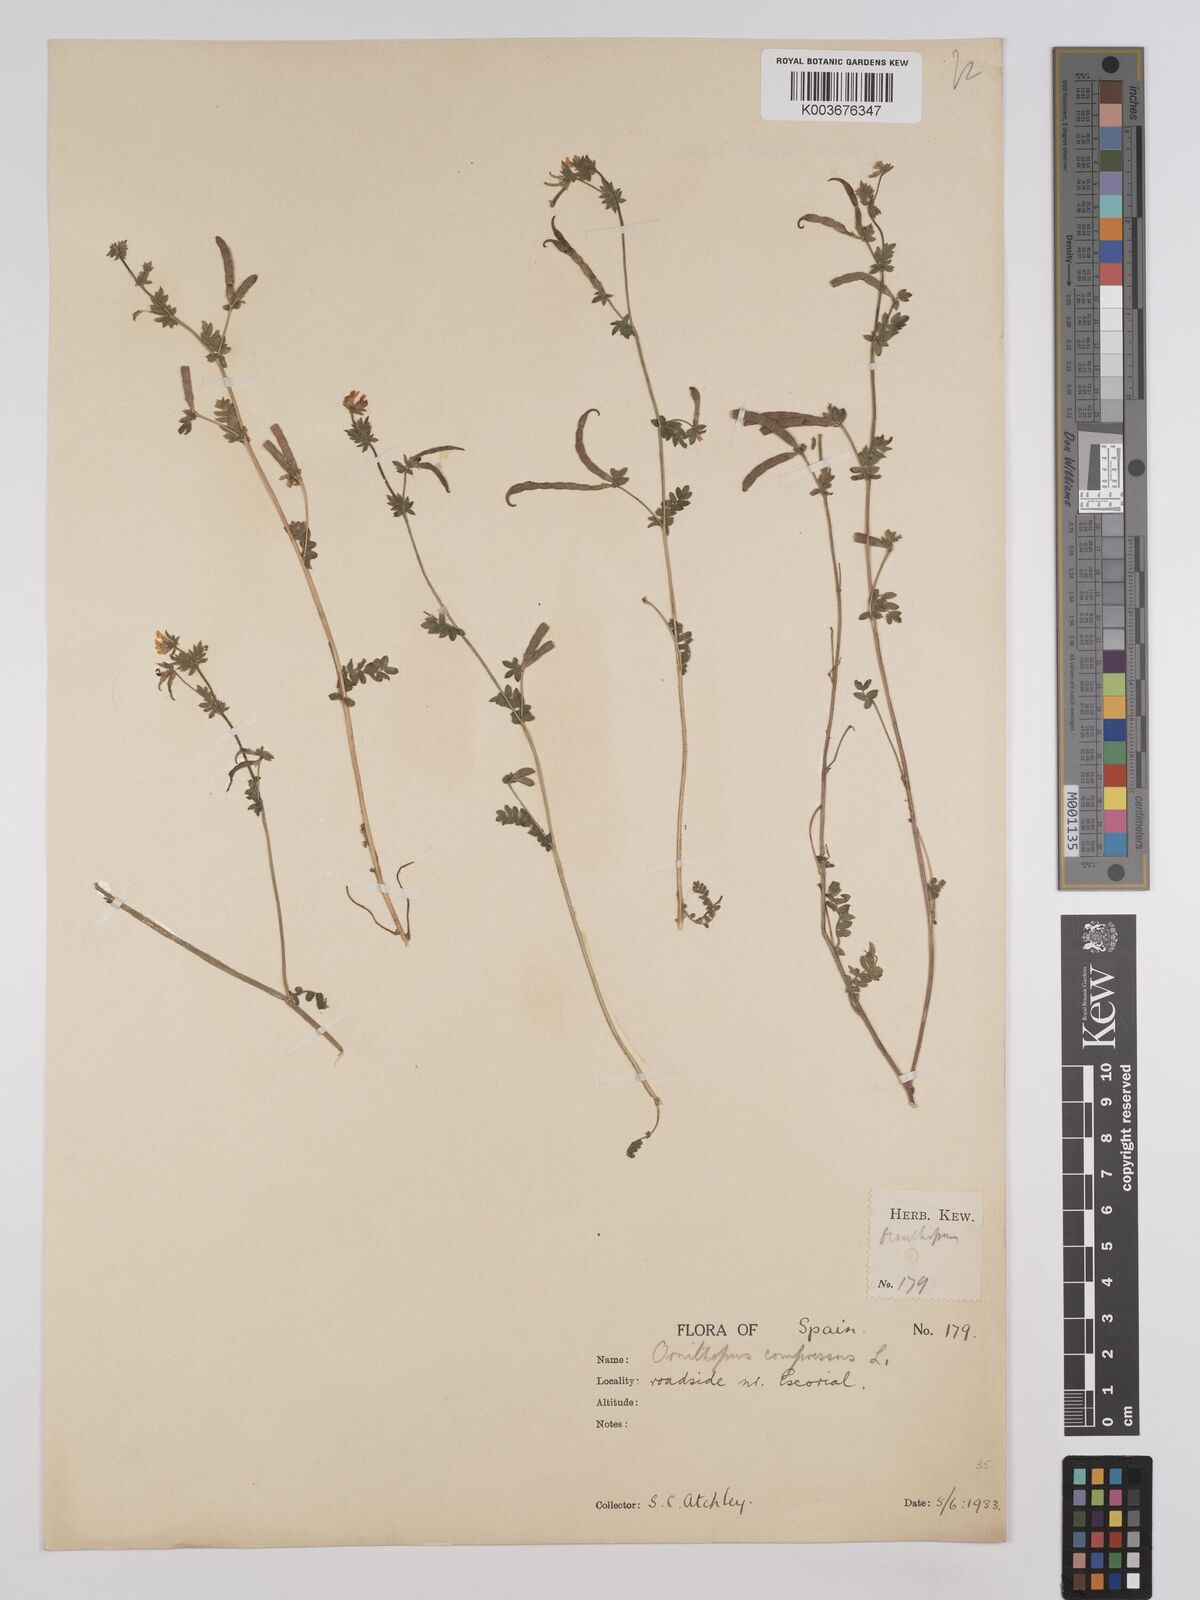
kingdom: Plantae
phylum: Tracheophyta
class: Magnoliopsida
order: Fabales
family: Fabaceae
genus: Ornithopus
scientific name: Ornithopus compressus
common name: Yellow serradella
